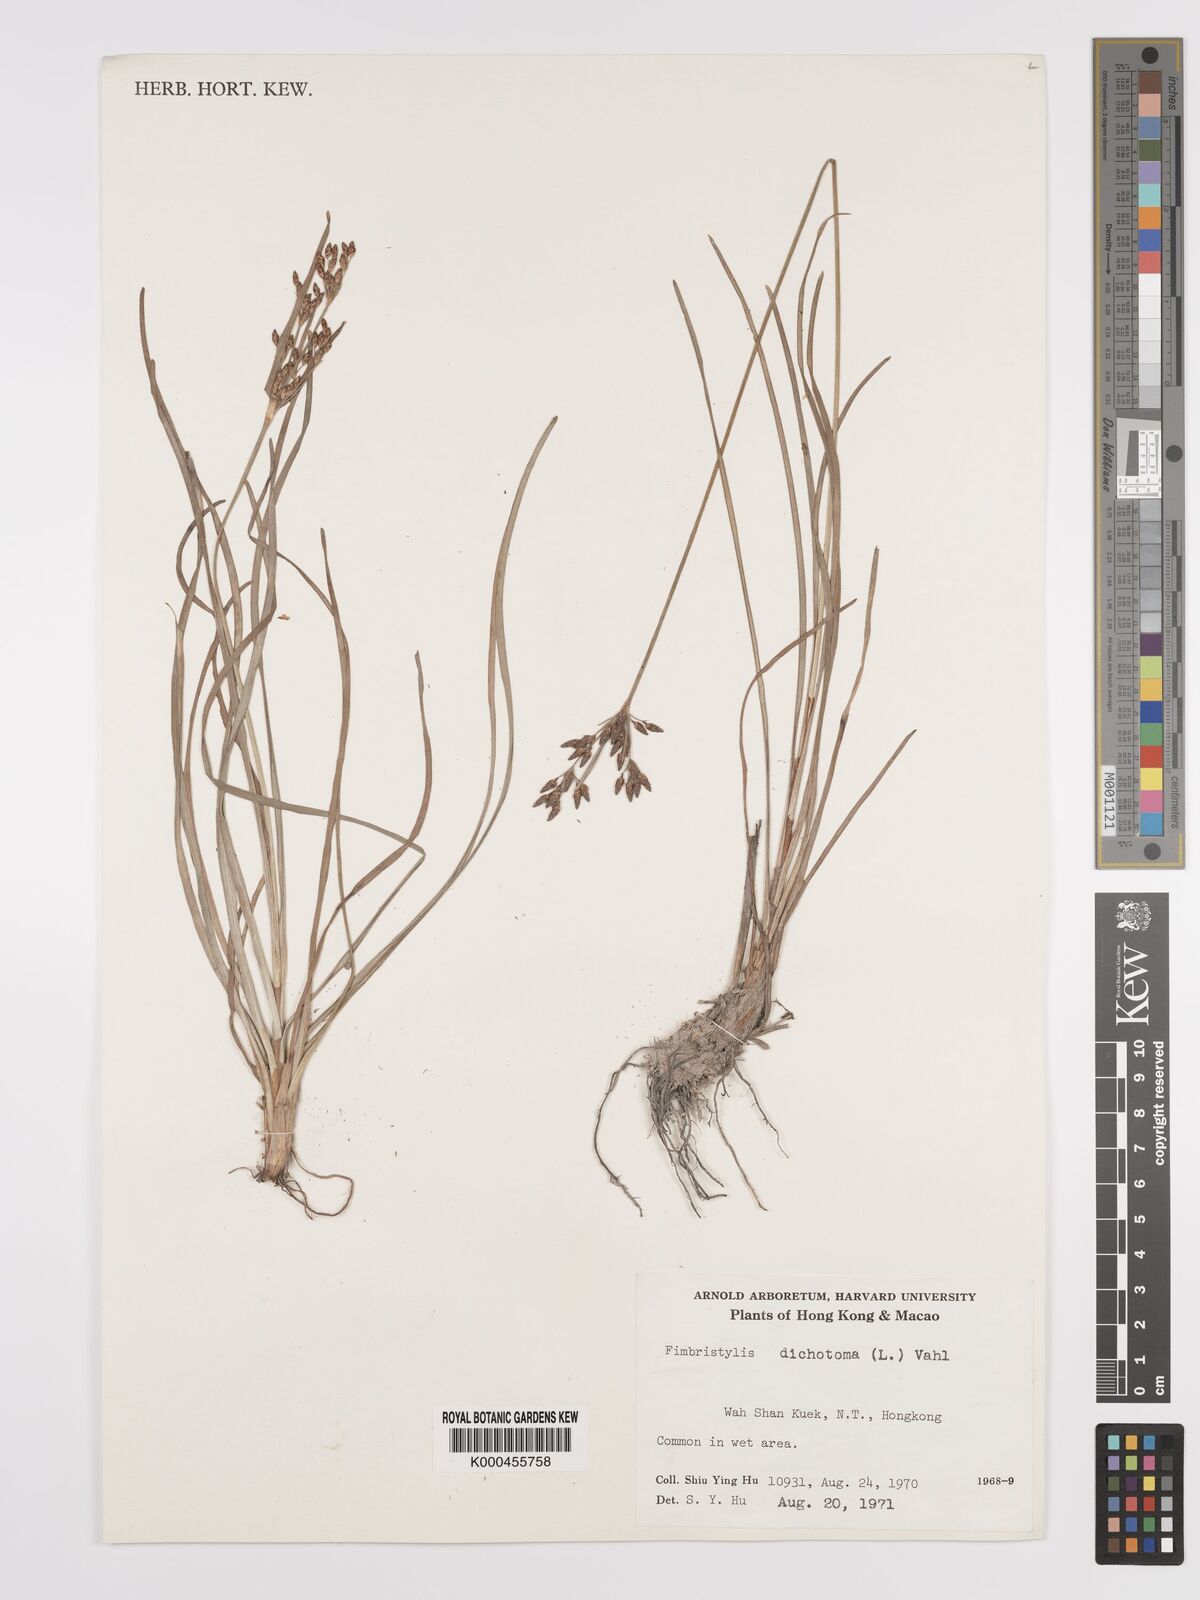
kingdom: Plantae
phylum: Tracheophyta
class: Liliopsida
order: Poales
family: Cyperaceae
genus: Fimbristylis
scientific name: Fimbristylis dichotoma
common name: Forked fimbry
